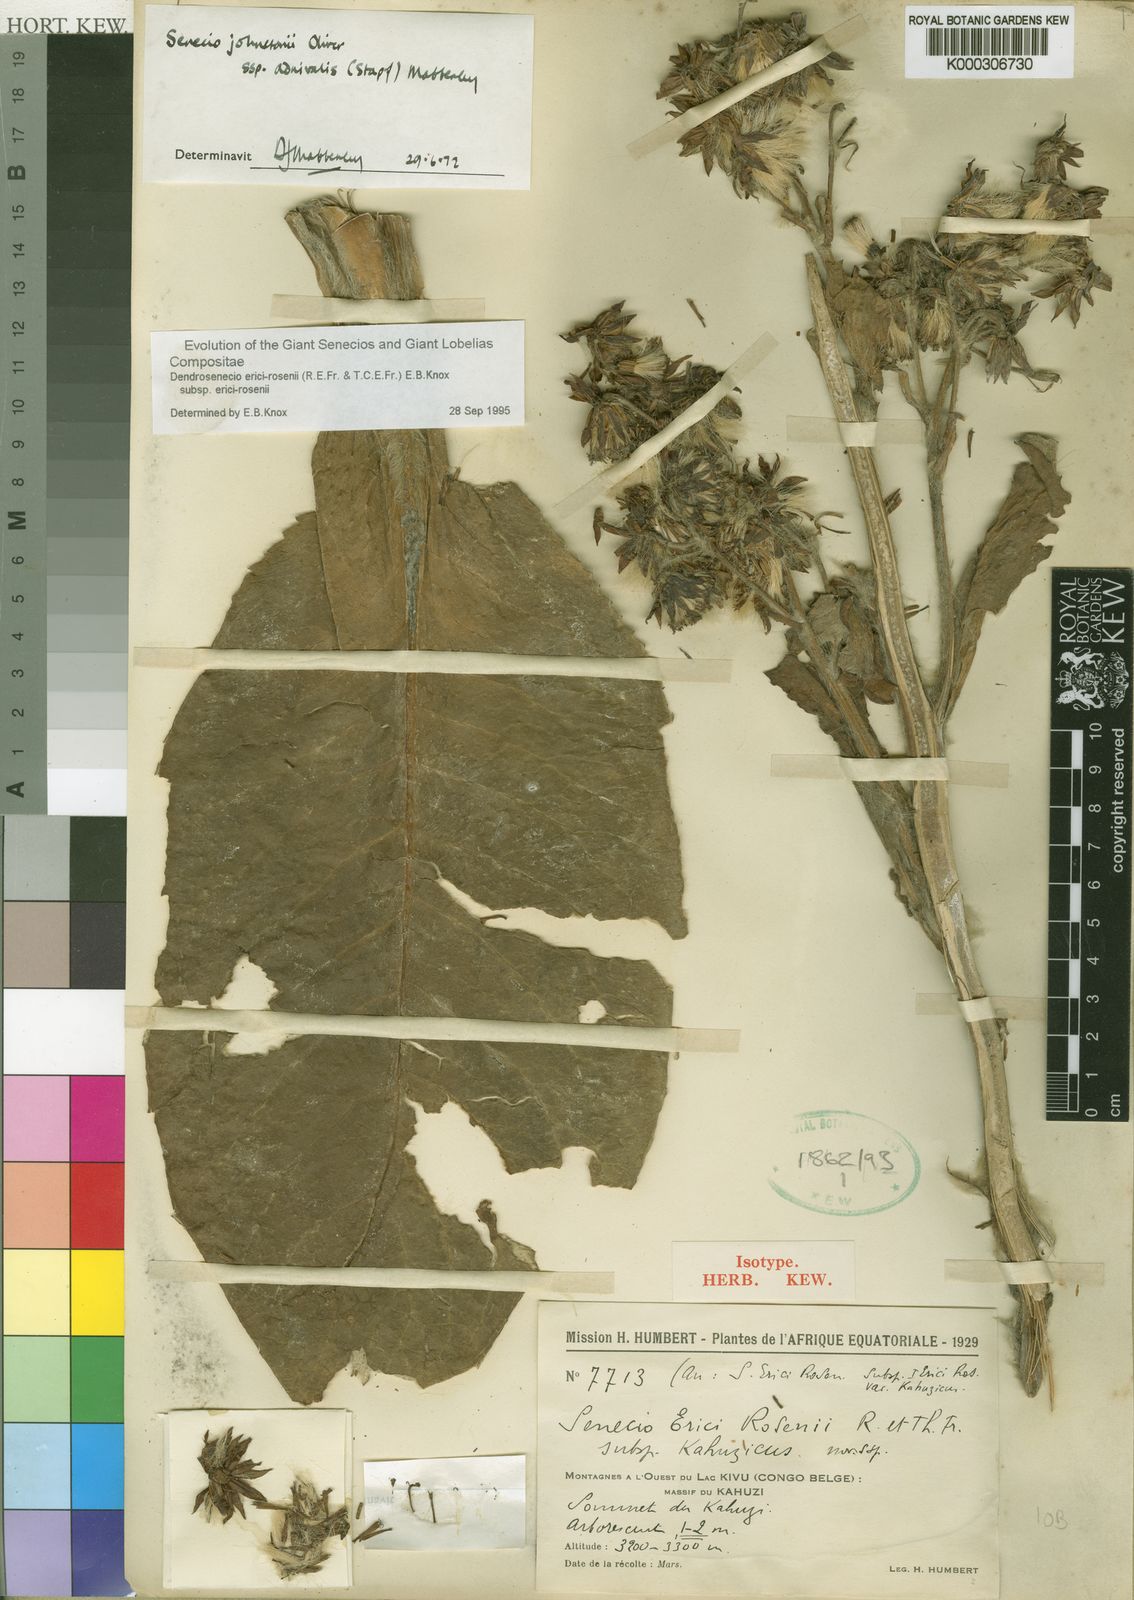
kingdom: Plantae
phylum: Tracheophyta
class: Magnoliopsida
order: Asterales
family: Asteraceae
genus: Dendrosenecio
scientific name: Dendrosenecio erici-rosenii
